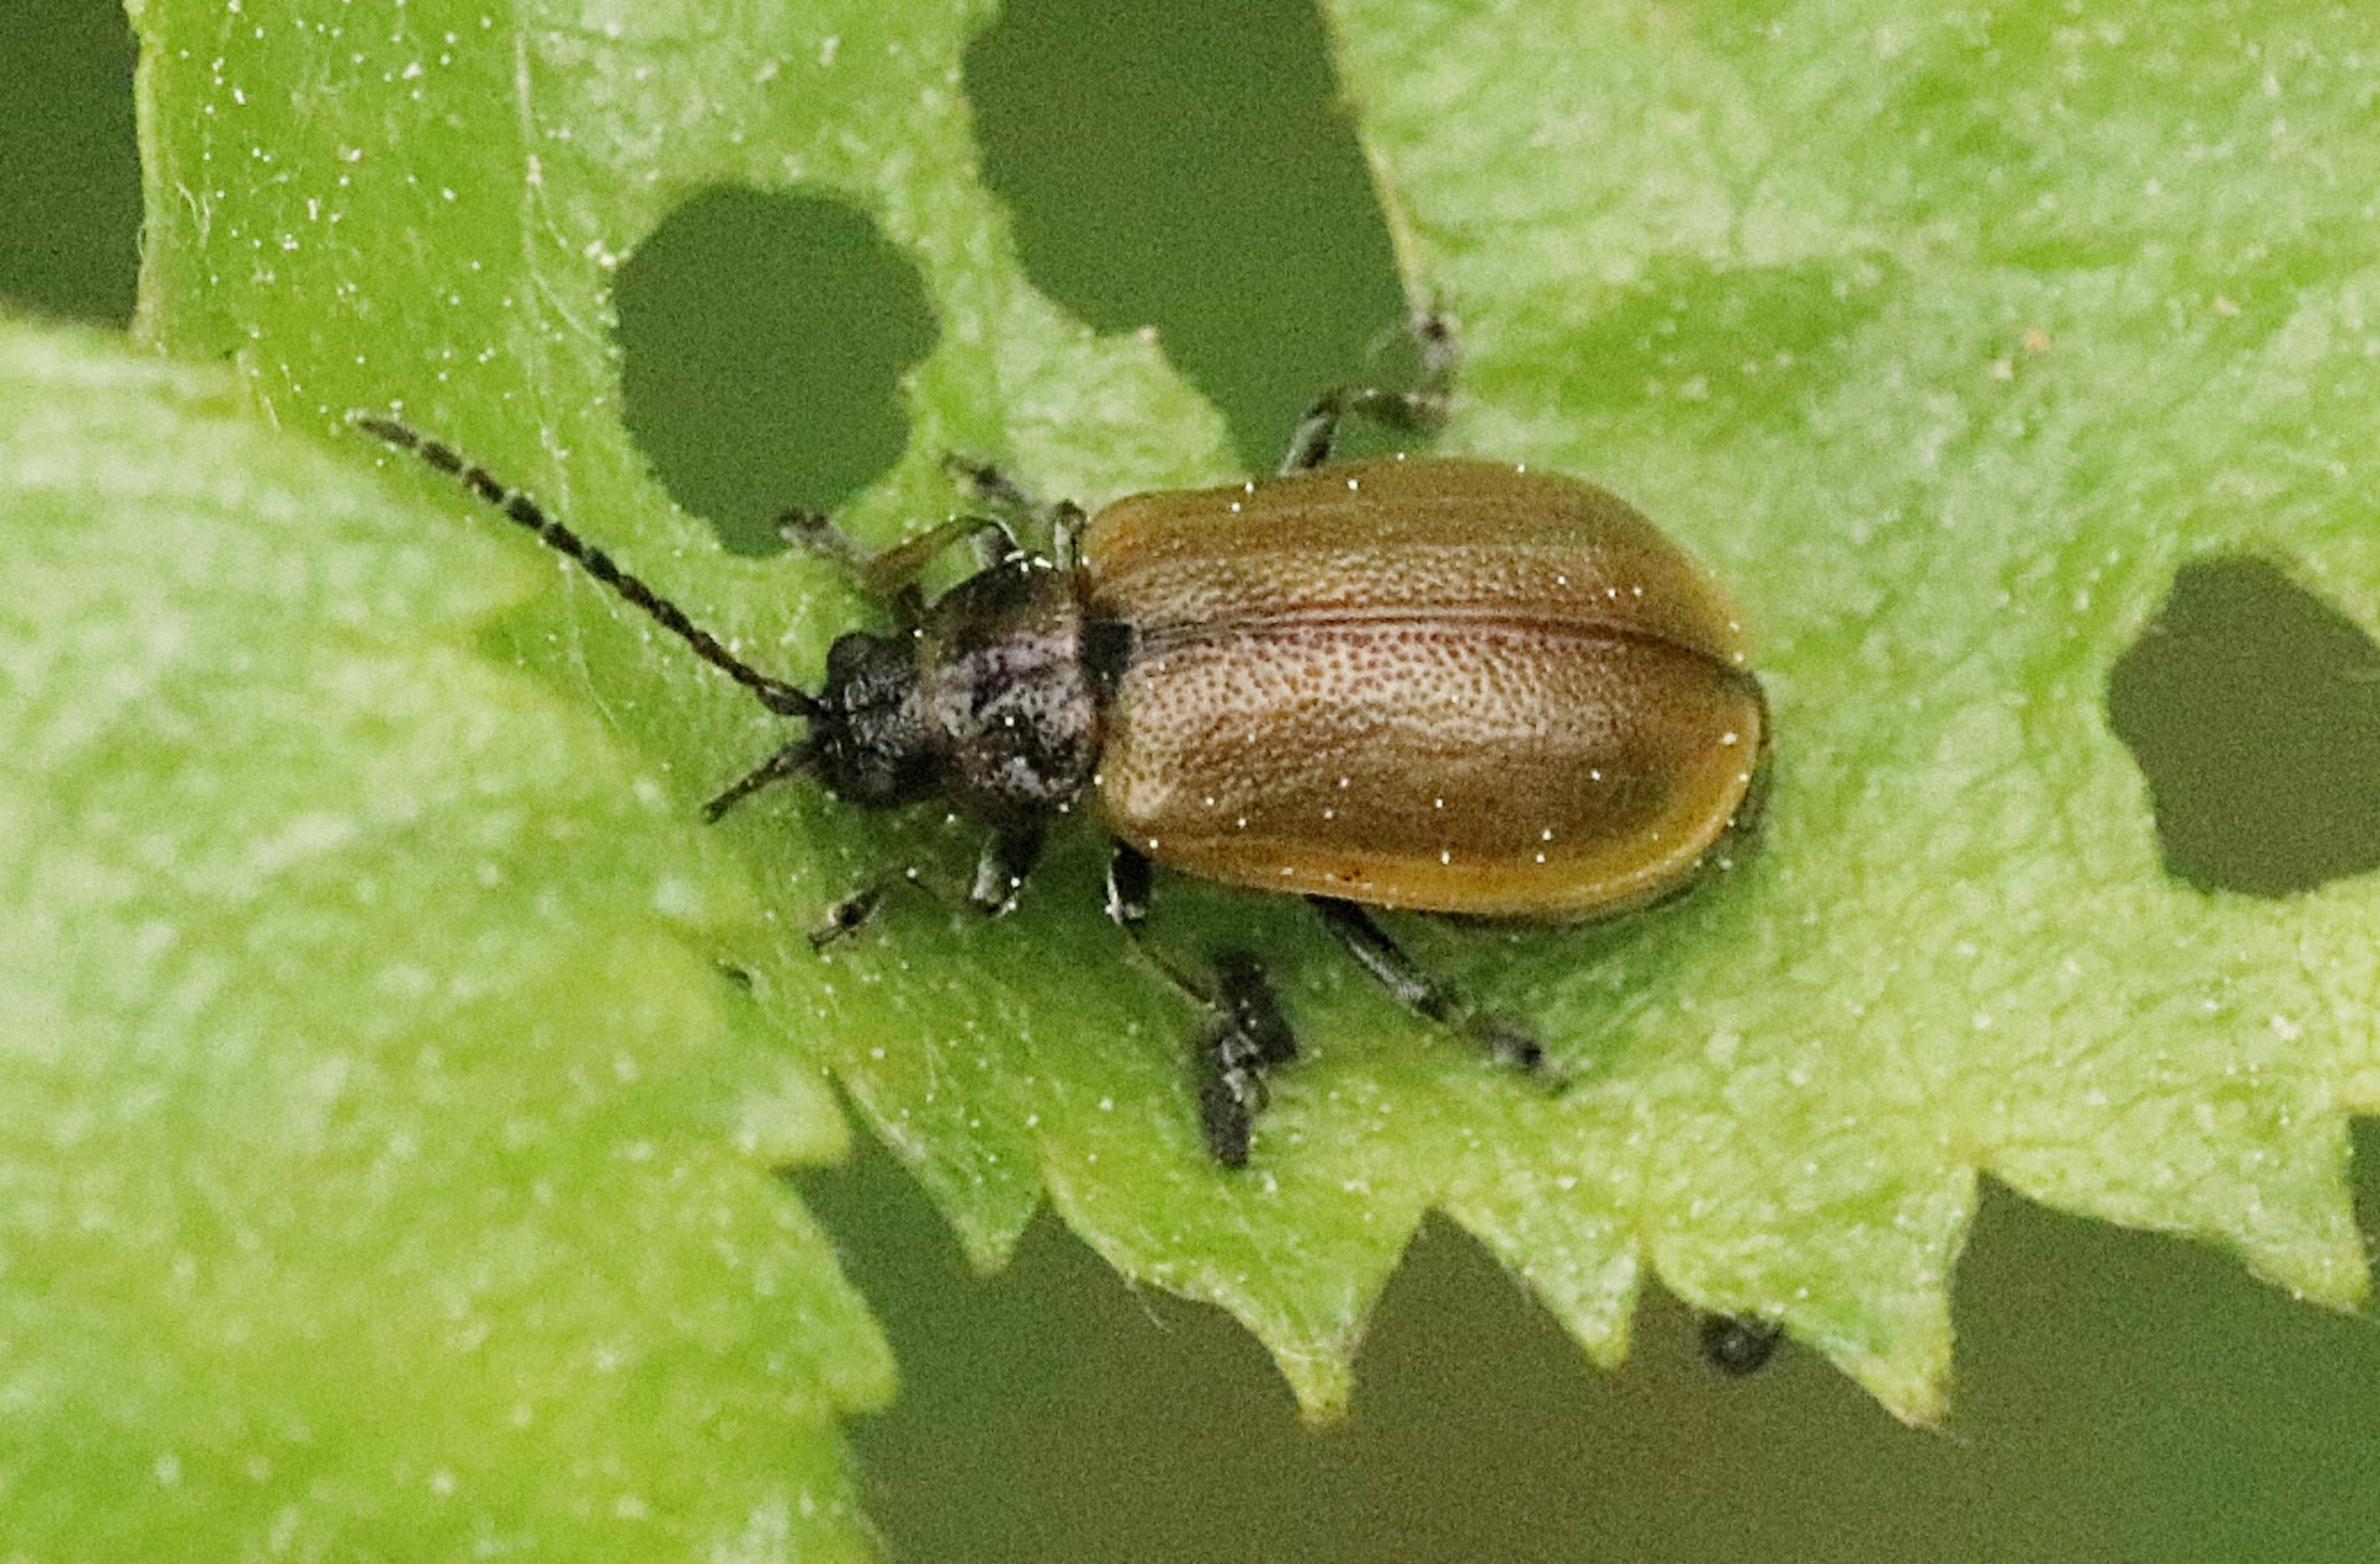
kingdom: Animalia
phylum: Arthropoda
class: Insecta
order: Coleoptera
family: Chrysomelidae
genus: Lochmaea
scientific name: Lochmaea caprea
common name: Rødbrun birkebladbille
